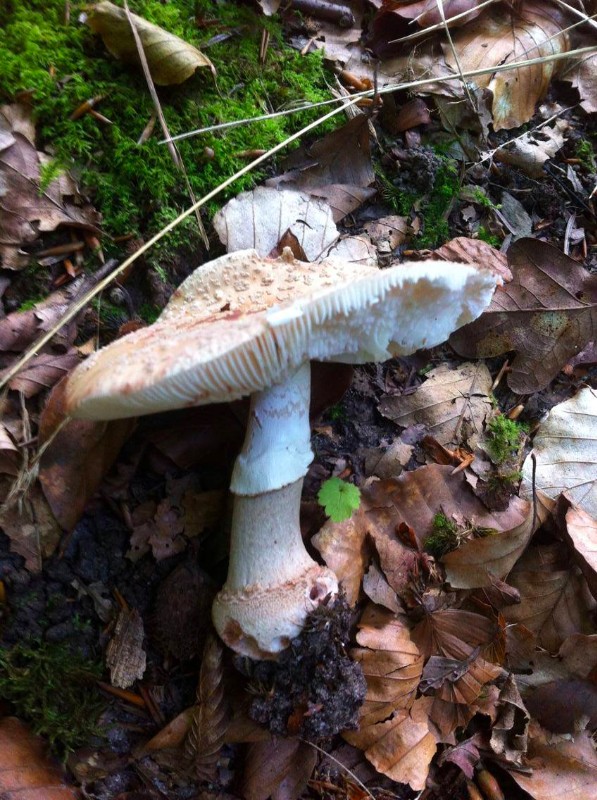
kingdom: Fungi
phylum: Basidiomycota
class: Agaricomycetes
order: Agaricales
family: Amanitaceae
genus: Amanita
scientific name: Amanita rubescens
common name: rødmende fluesvamp
